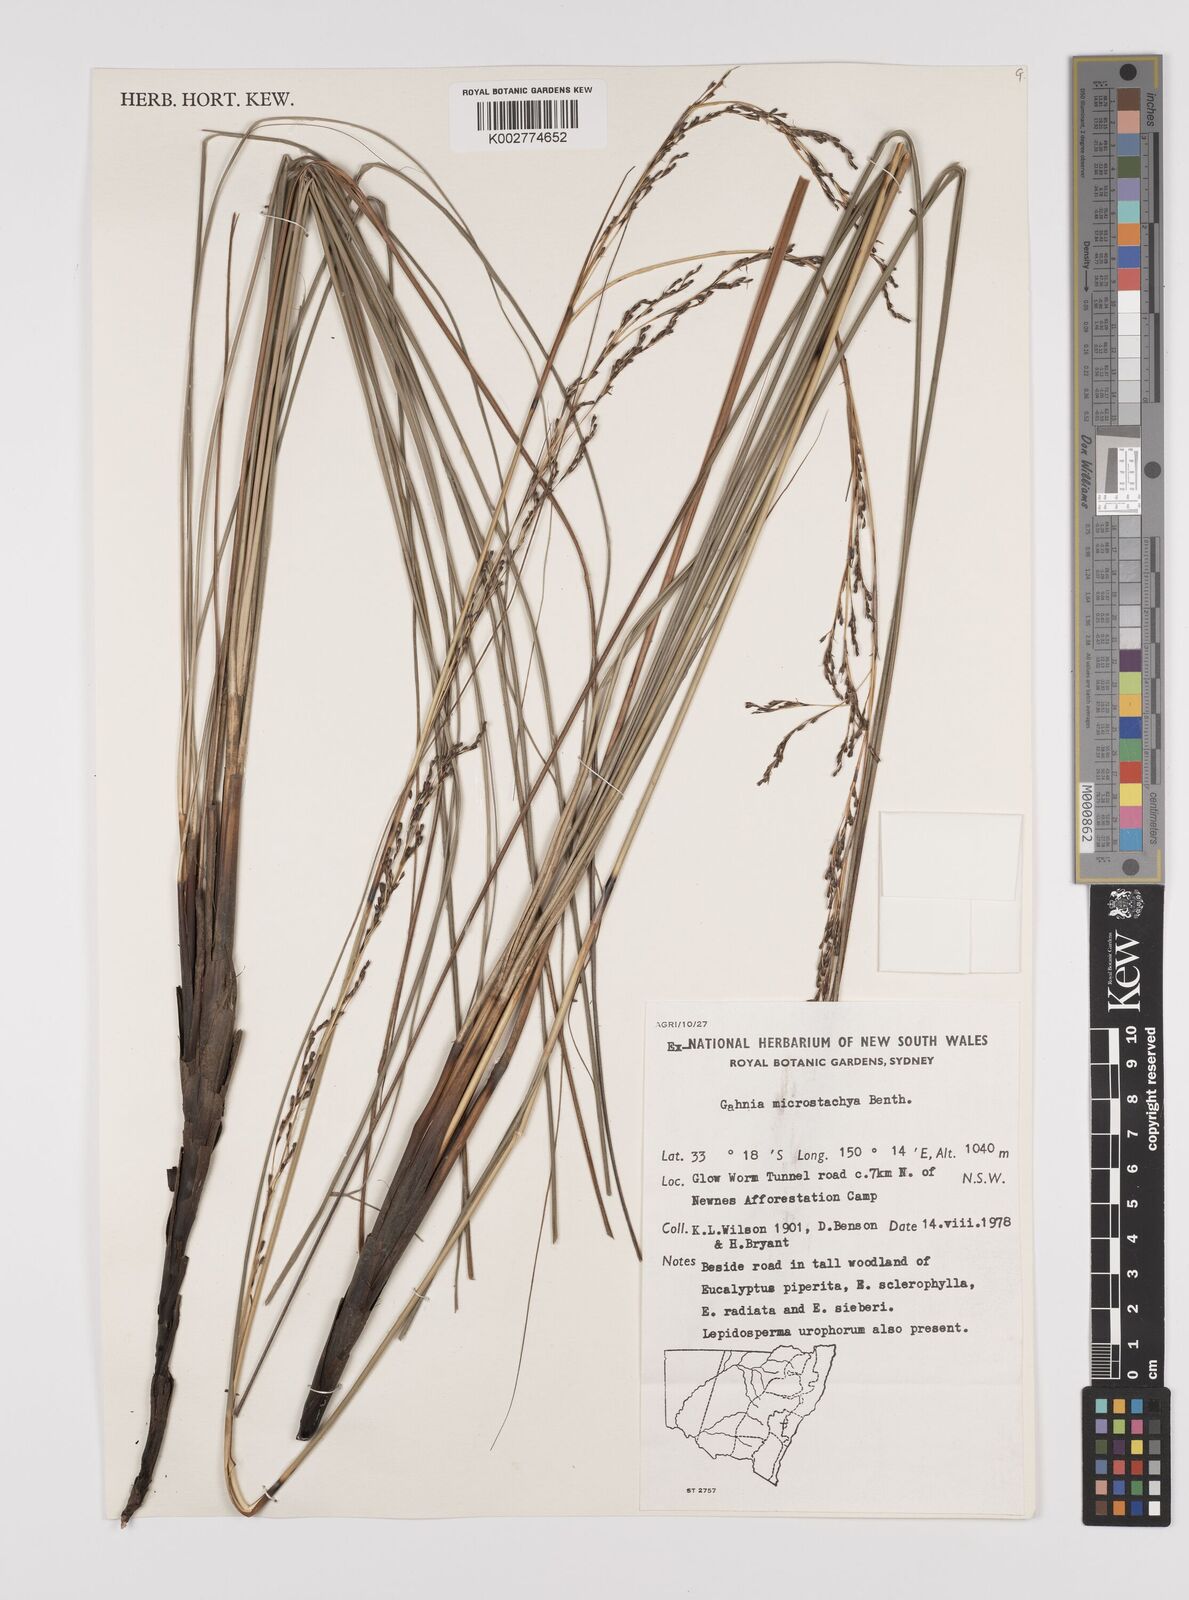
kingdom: Plantae
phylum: Tracheophyta
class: Liliopsida
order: Poales
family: Cyperaceae
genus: Gahnia
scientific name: Gahnia microstachya
